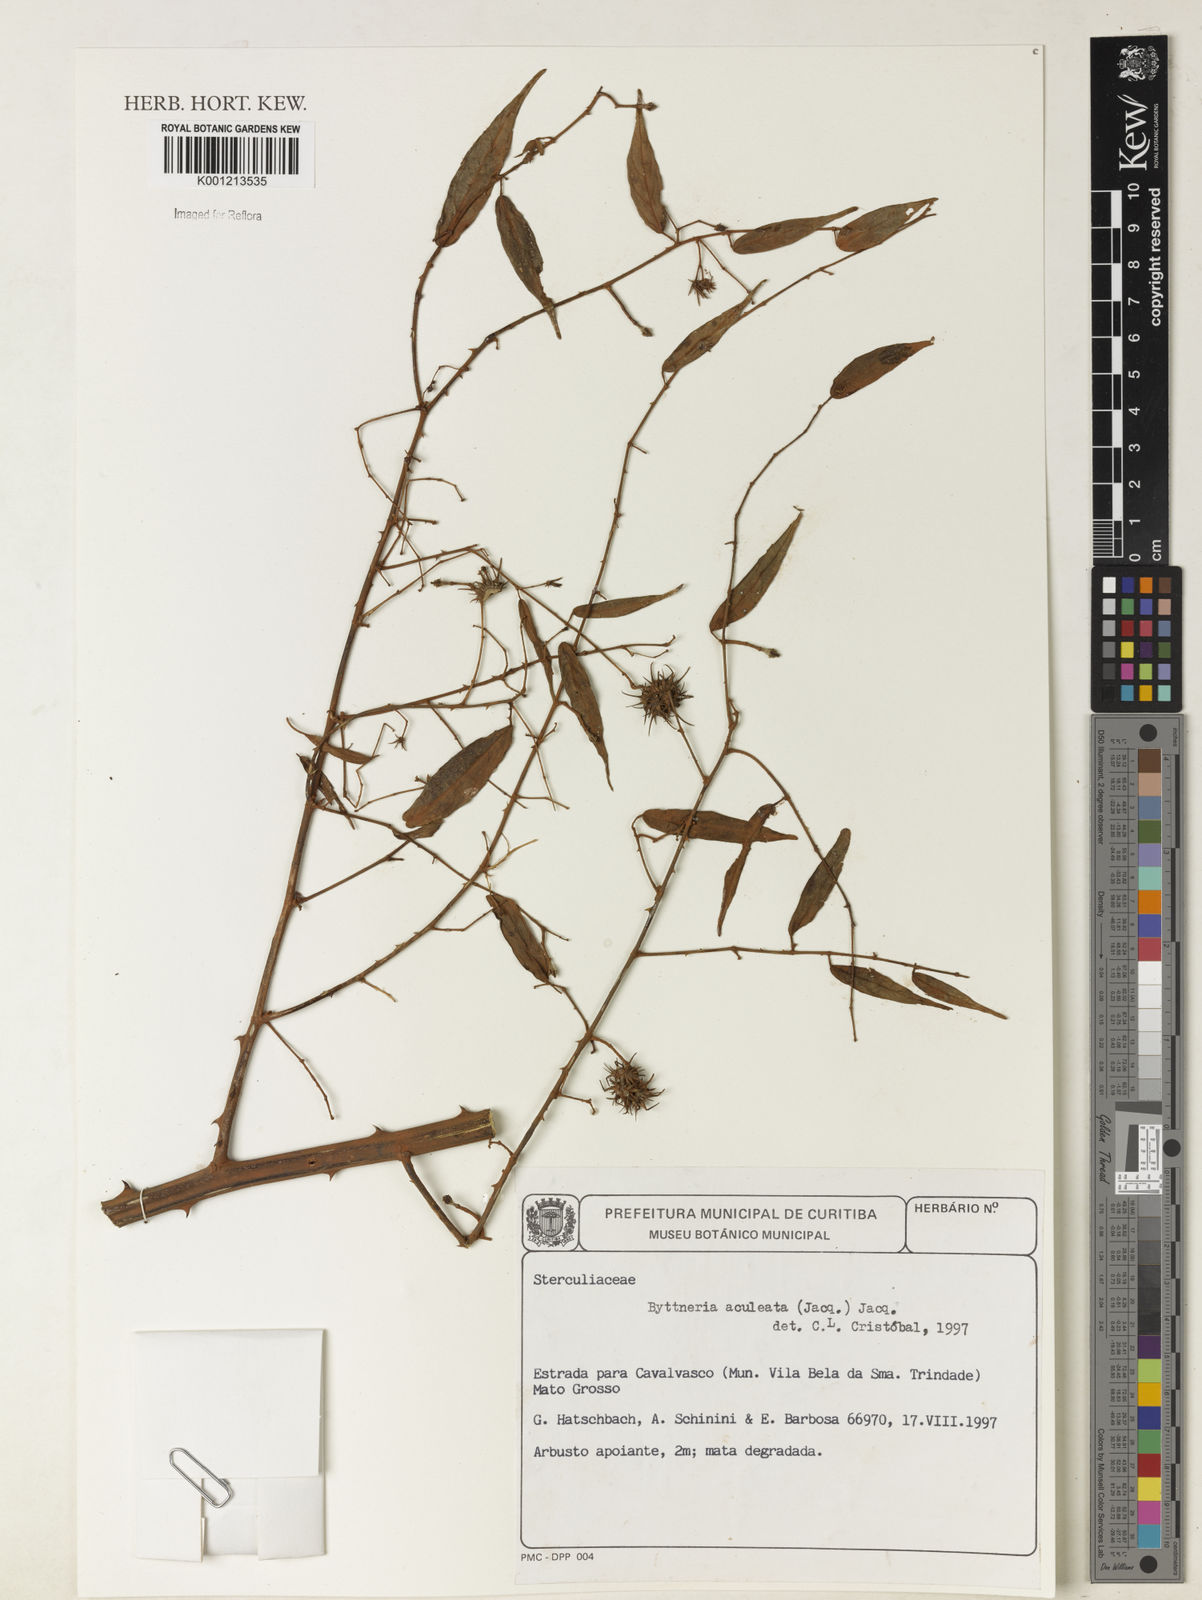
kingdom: Plantae
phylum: Tracheophyta
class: Magnoliopsida
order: Malvales
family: Malvaceae
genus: Byttneria
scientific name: Byttneria aculeata
